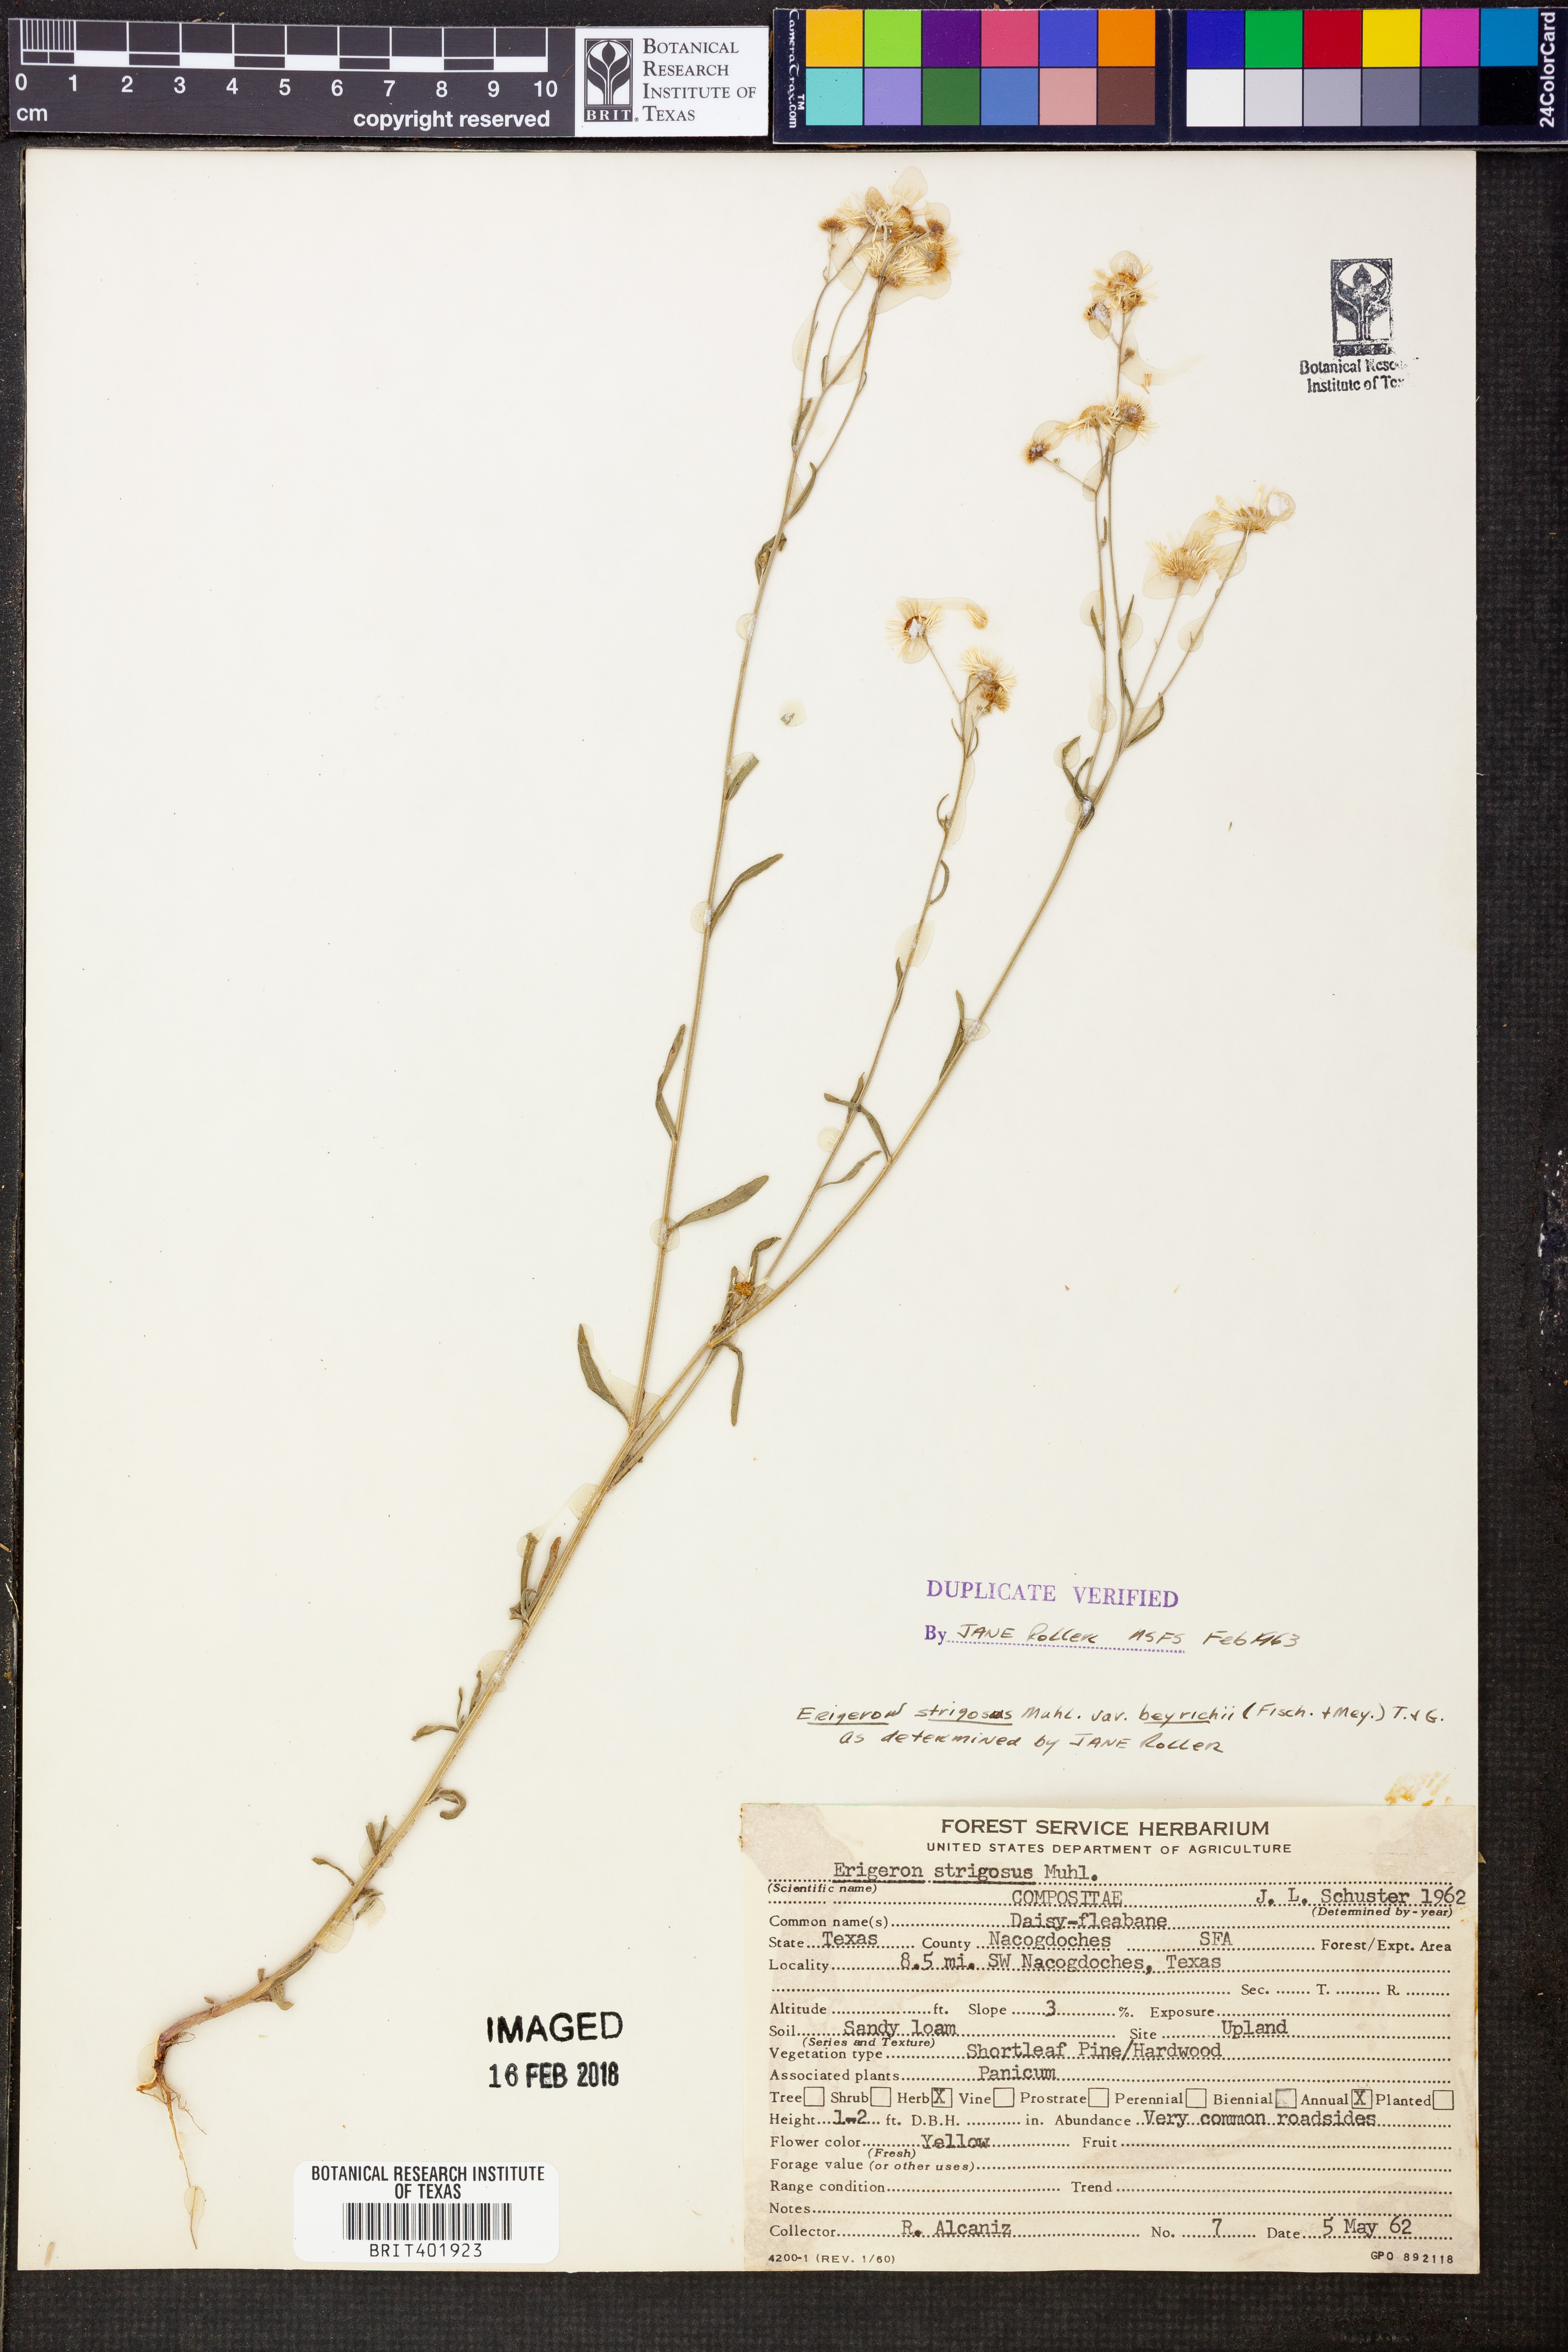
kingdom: Plantae
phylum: Tracheophyta
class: Magnoliopsida
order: Asterales
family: Asteraceae
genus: Erigeron
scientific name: Erigeron strigosus
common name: Common eastern fleabane
